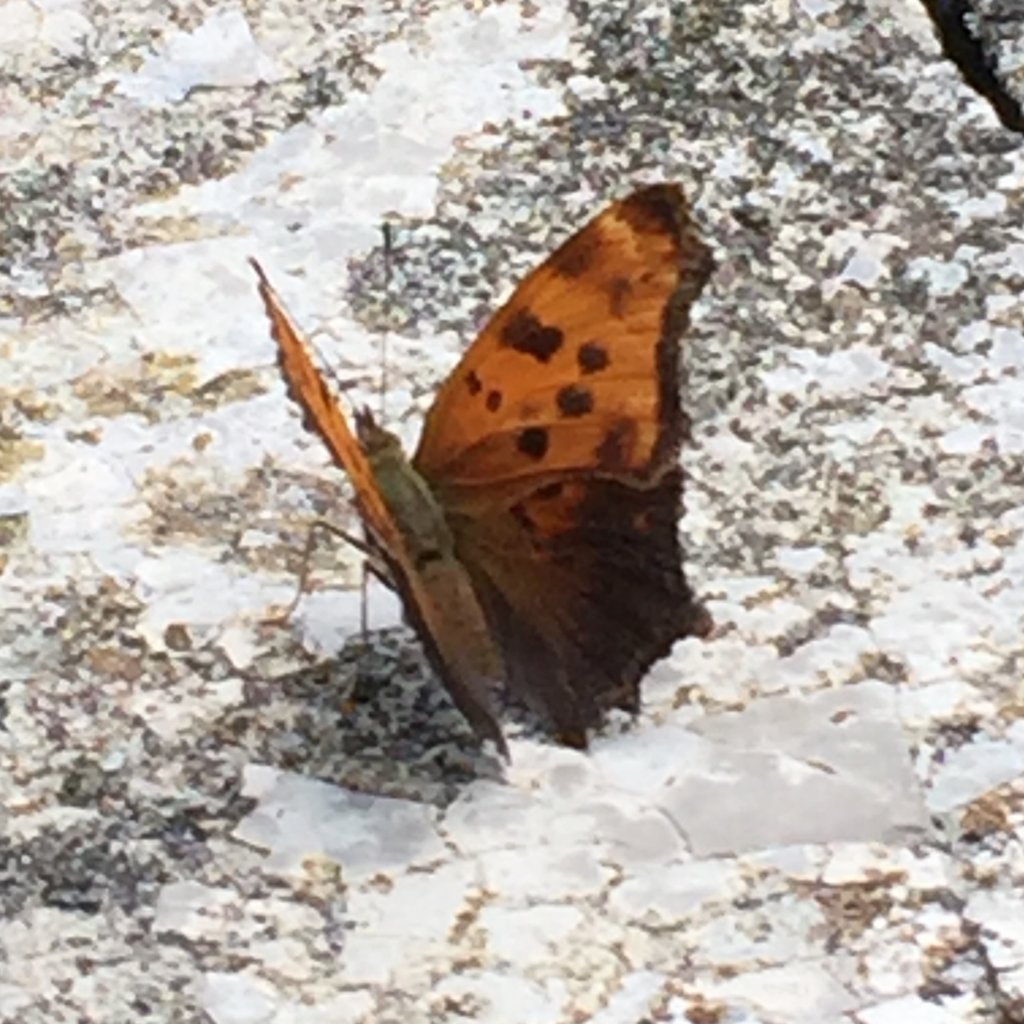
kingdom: Animalia
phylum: Arthropoda
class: Insecta
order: Lepidoptera
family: Nymphalidae
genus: Polygonia
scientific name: Polygonia comma
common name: Eastern Comma
